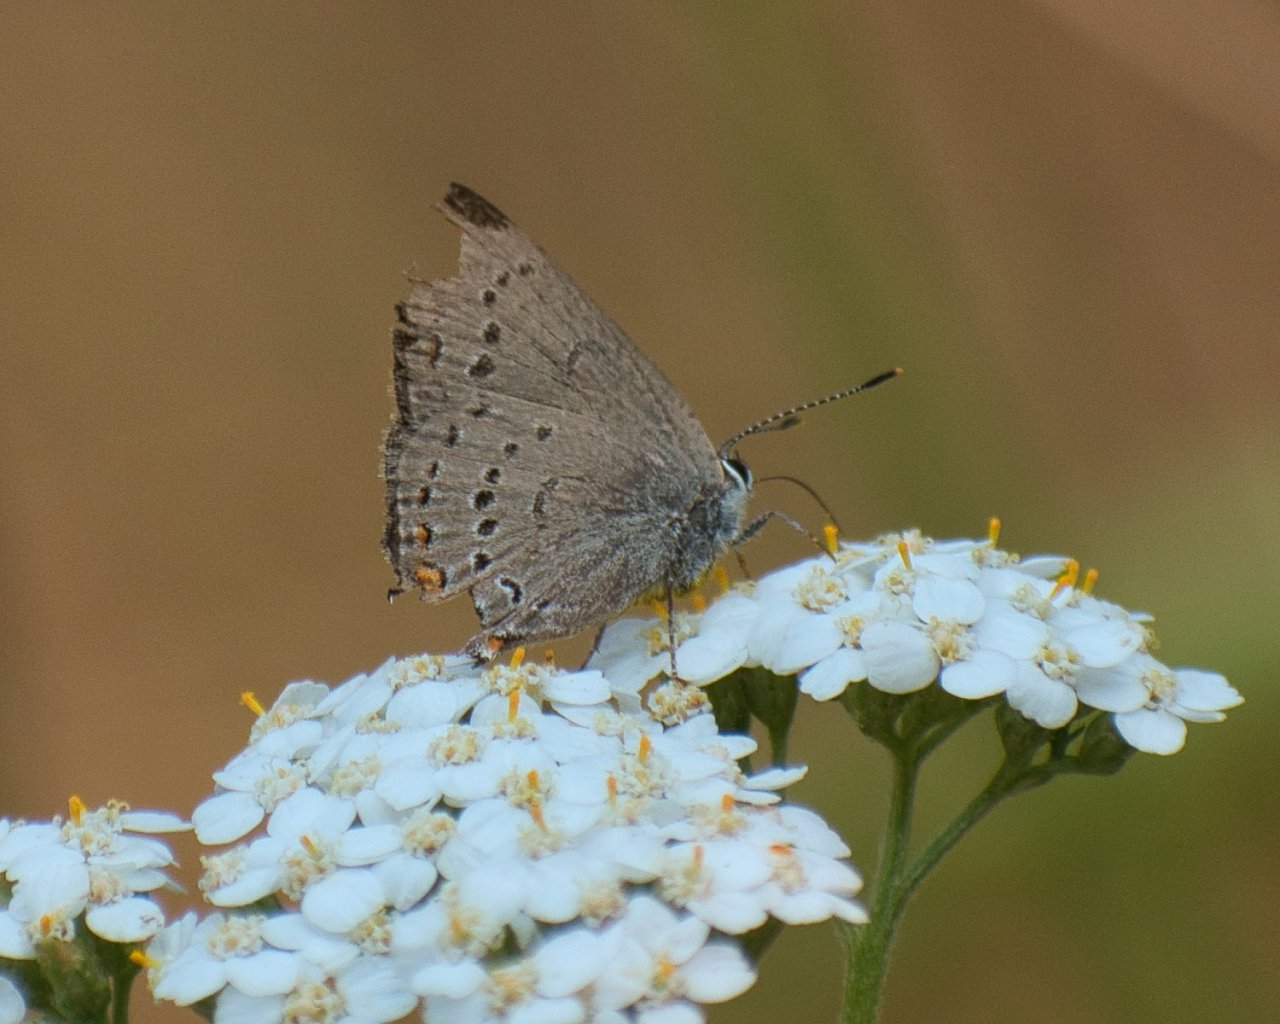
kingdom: Animalia
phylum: Arthropoda
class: Insecta
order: Lepidoptera
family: Lycaenidae
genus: Strymon
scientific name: Strymon sylvinus
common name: Sylvan Hairstreak
